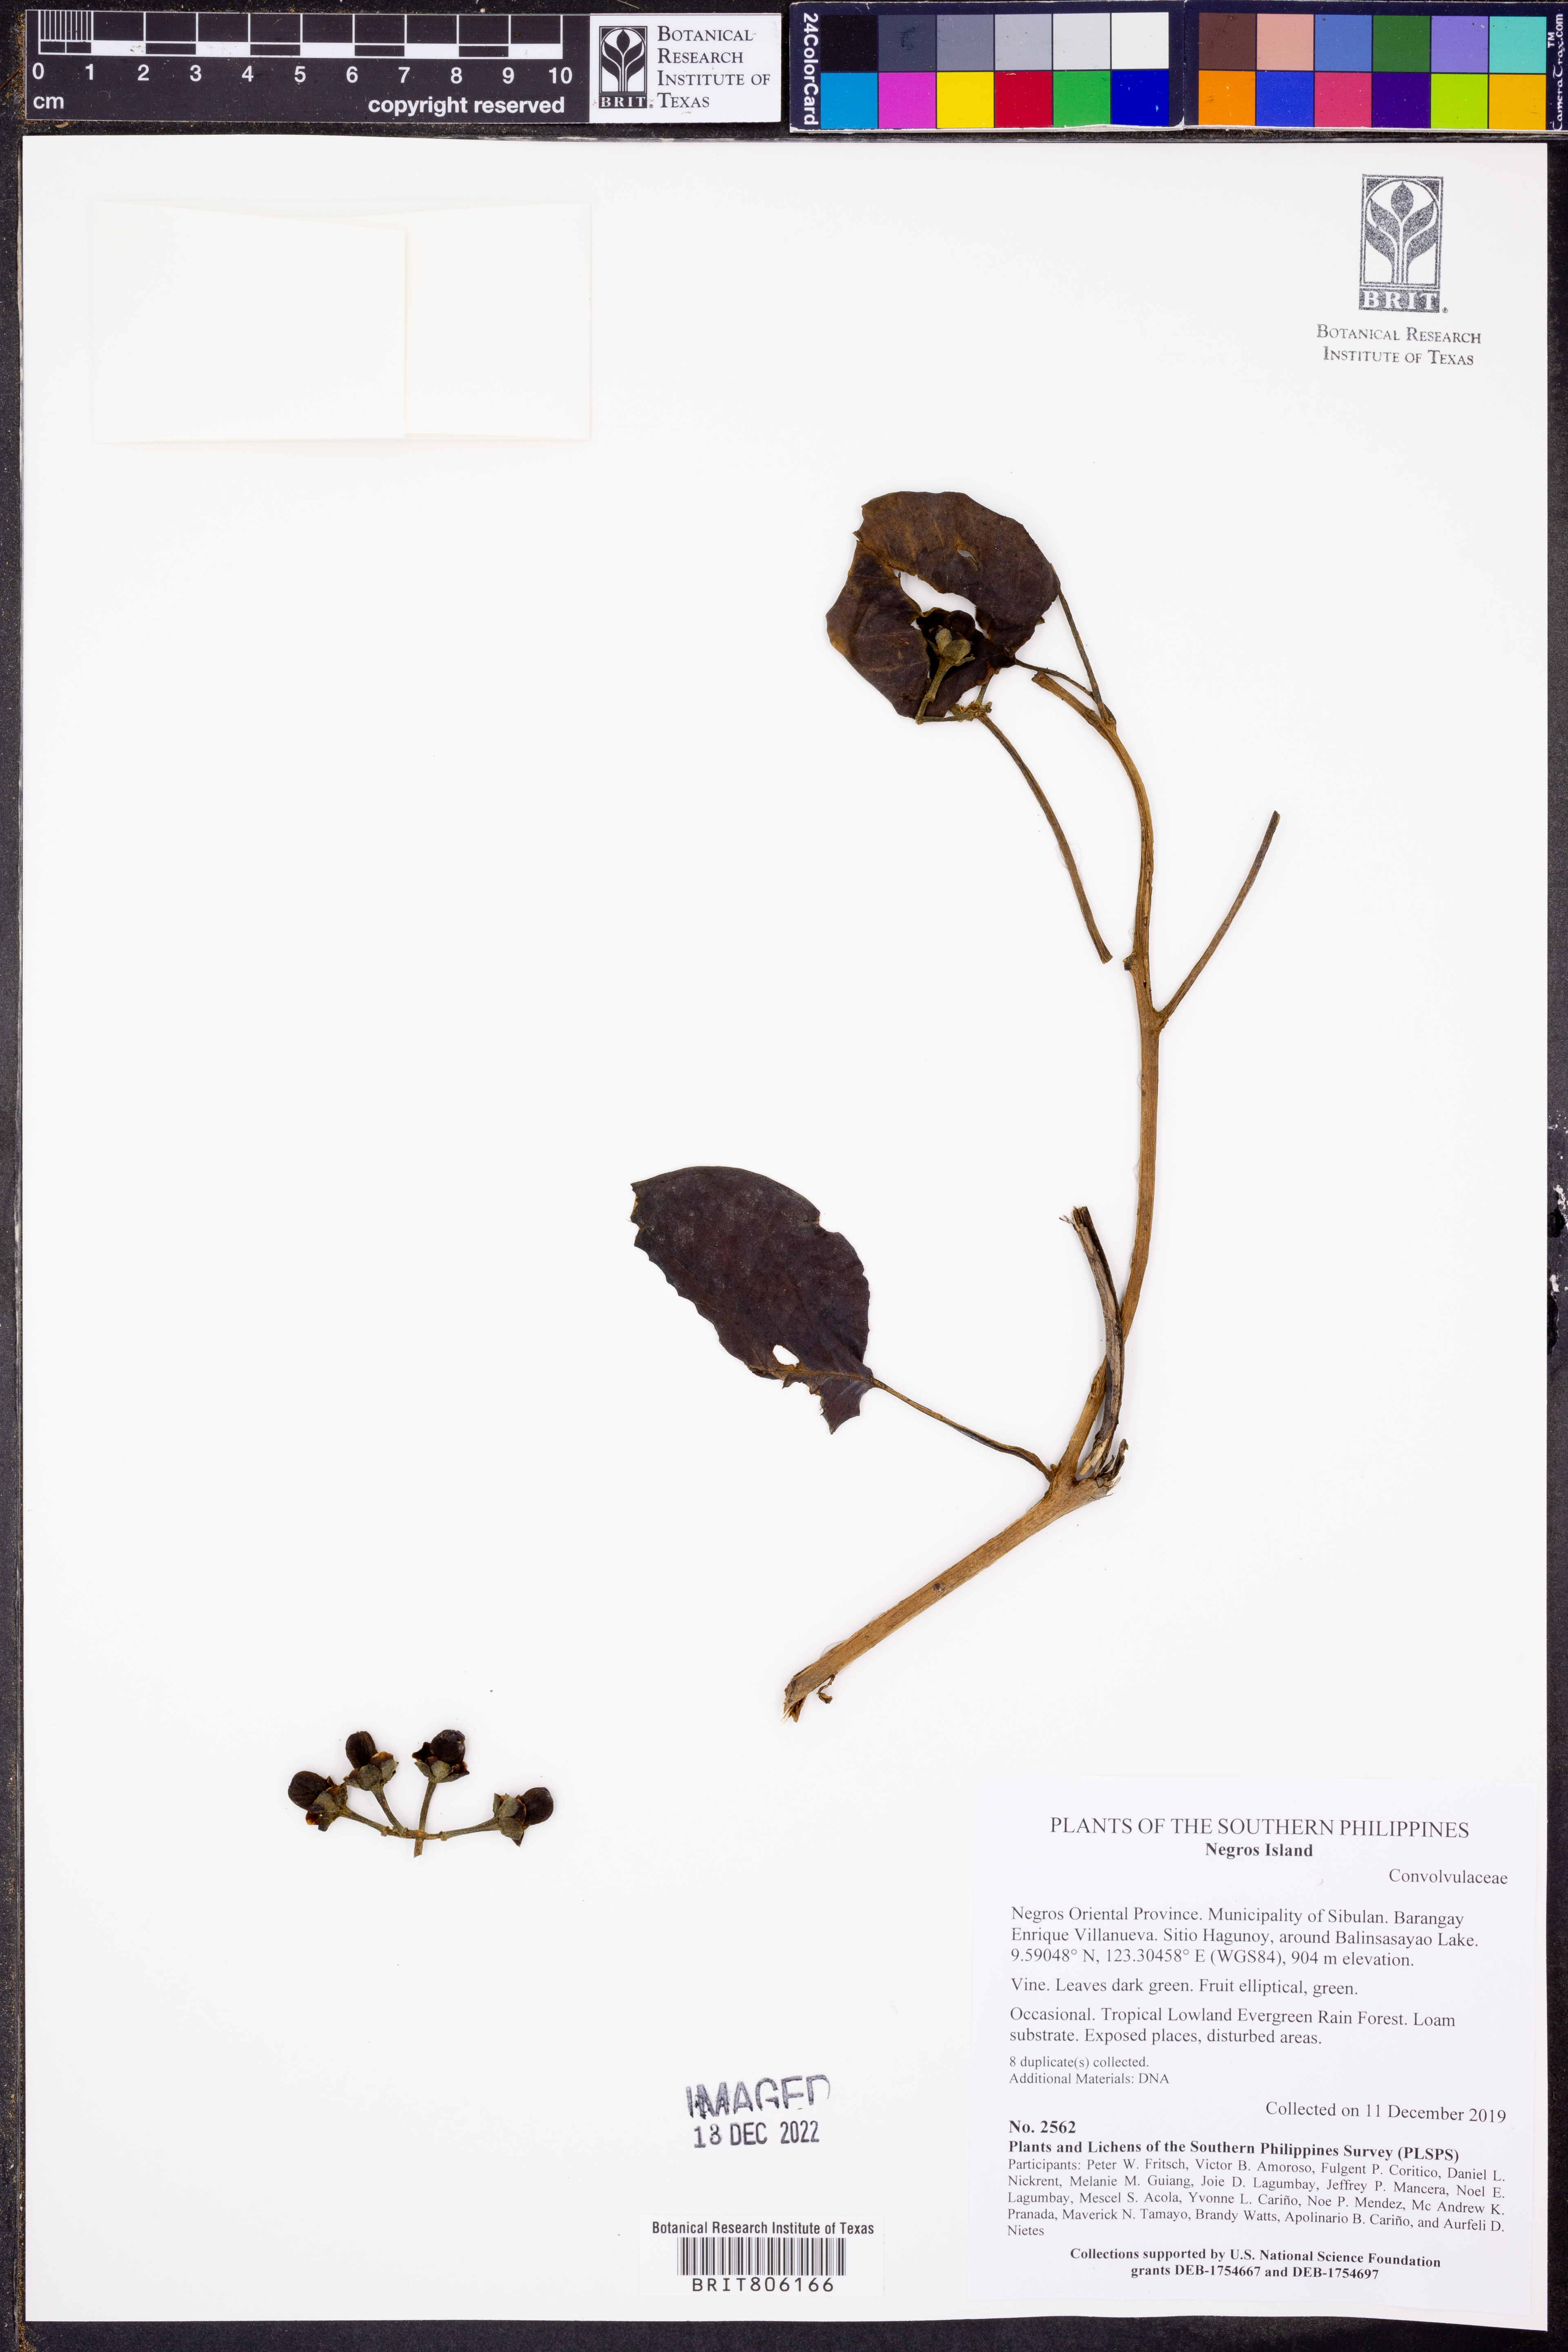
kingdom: Plantae
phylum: Tracheophyta
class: Magnoliopsida
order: Solanales
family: Convolvulaceae
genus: Argyreia
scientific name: Argyreia boholensis
